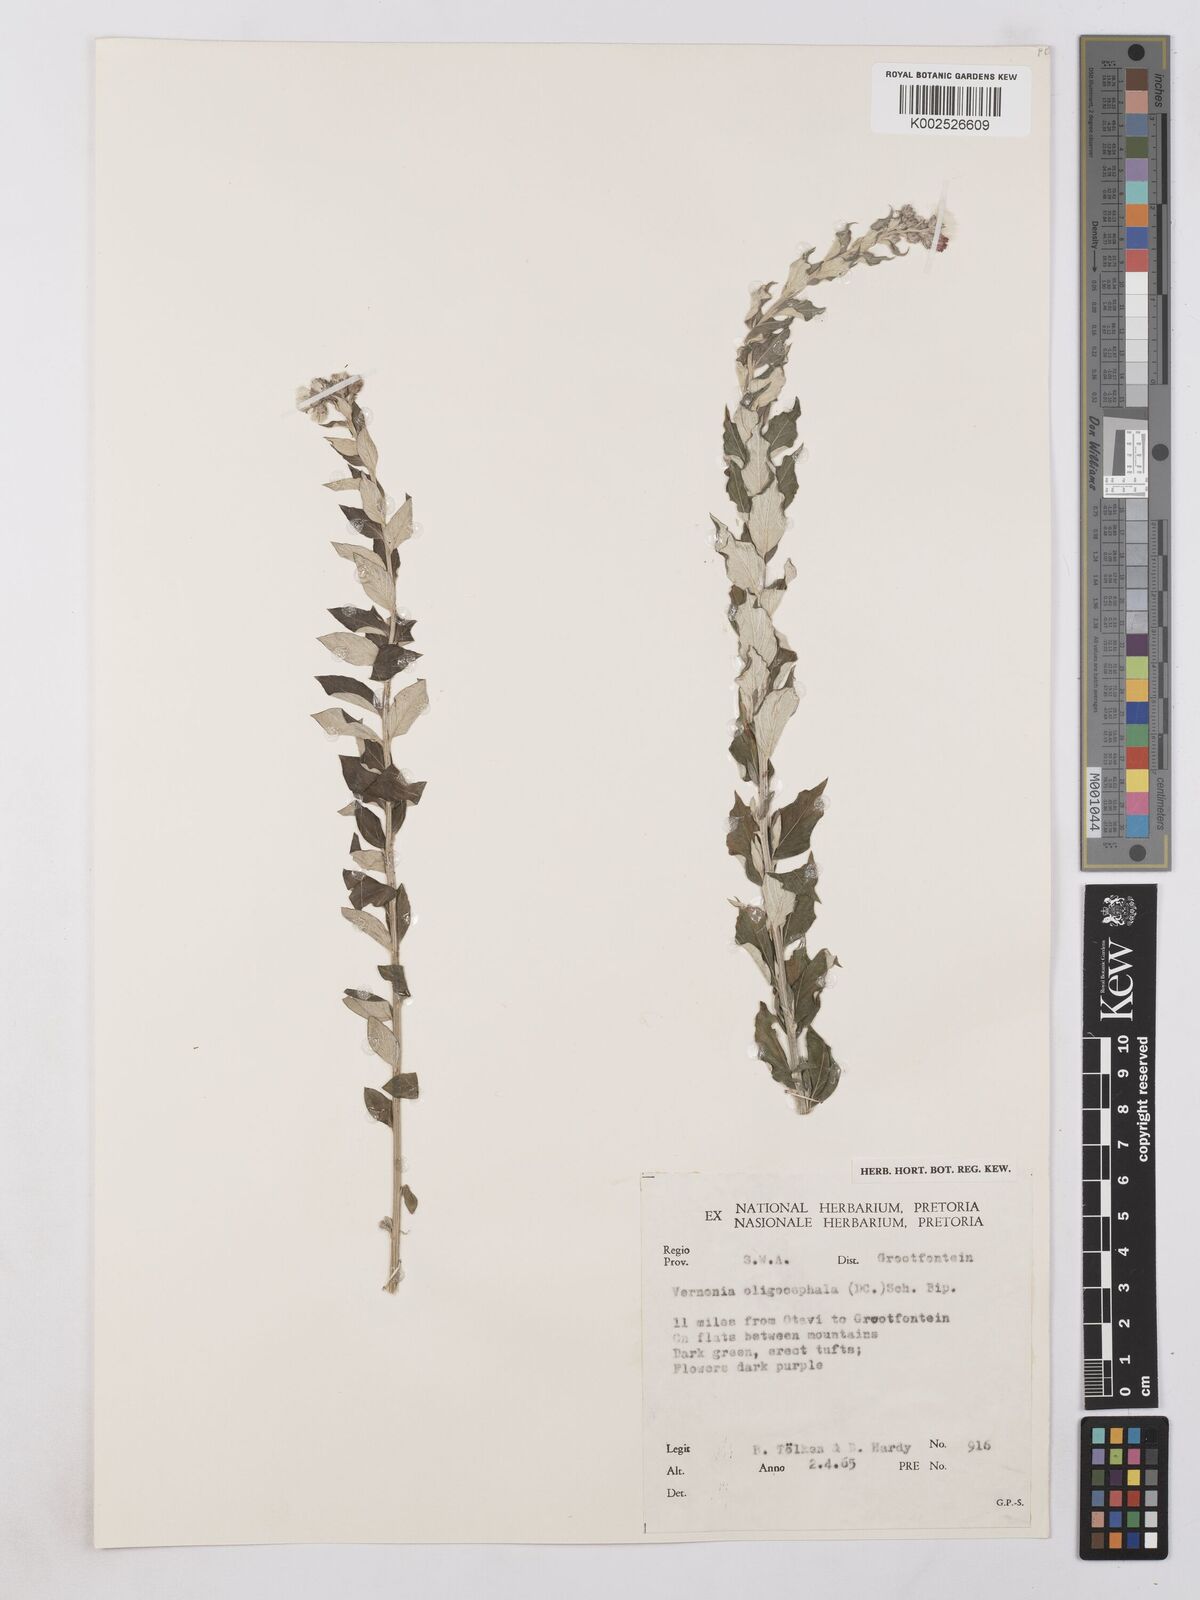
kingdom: Plantae
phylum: Tracheophyta
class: Magnoliopsida
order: Asterales
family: Asteraceae
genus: Hilliardiella
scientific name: Hilliardiella oligocephala
